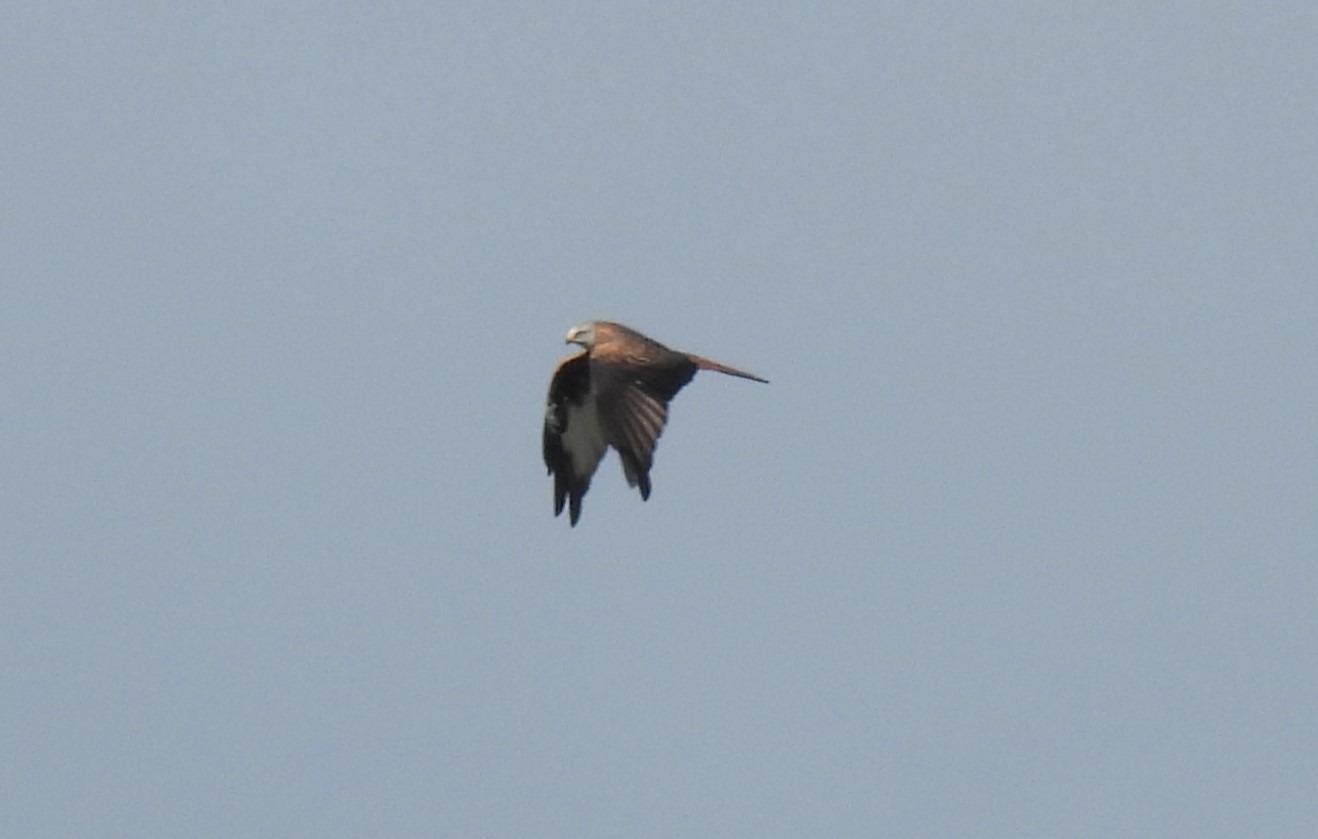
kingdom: Animalia
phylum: Chordata
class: Aves
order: Accipitriformes
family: Accipitridae
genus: Milvus
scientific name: Milvus milvus
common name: Rød glente
